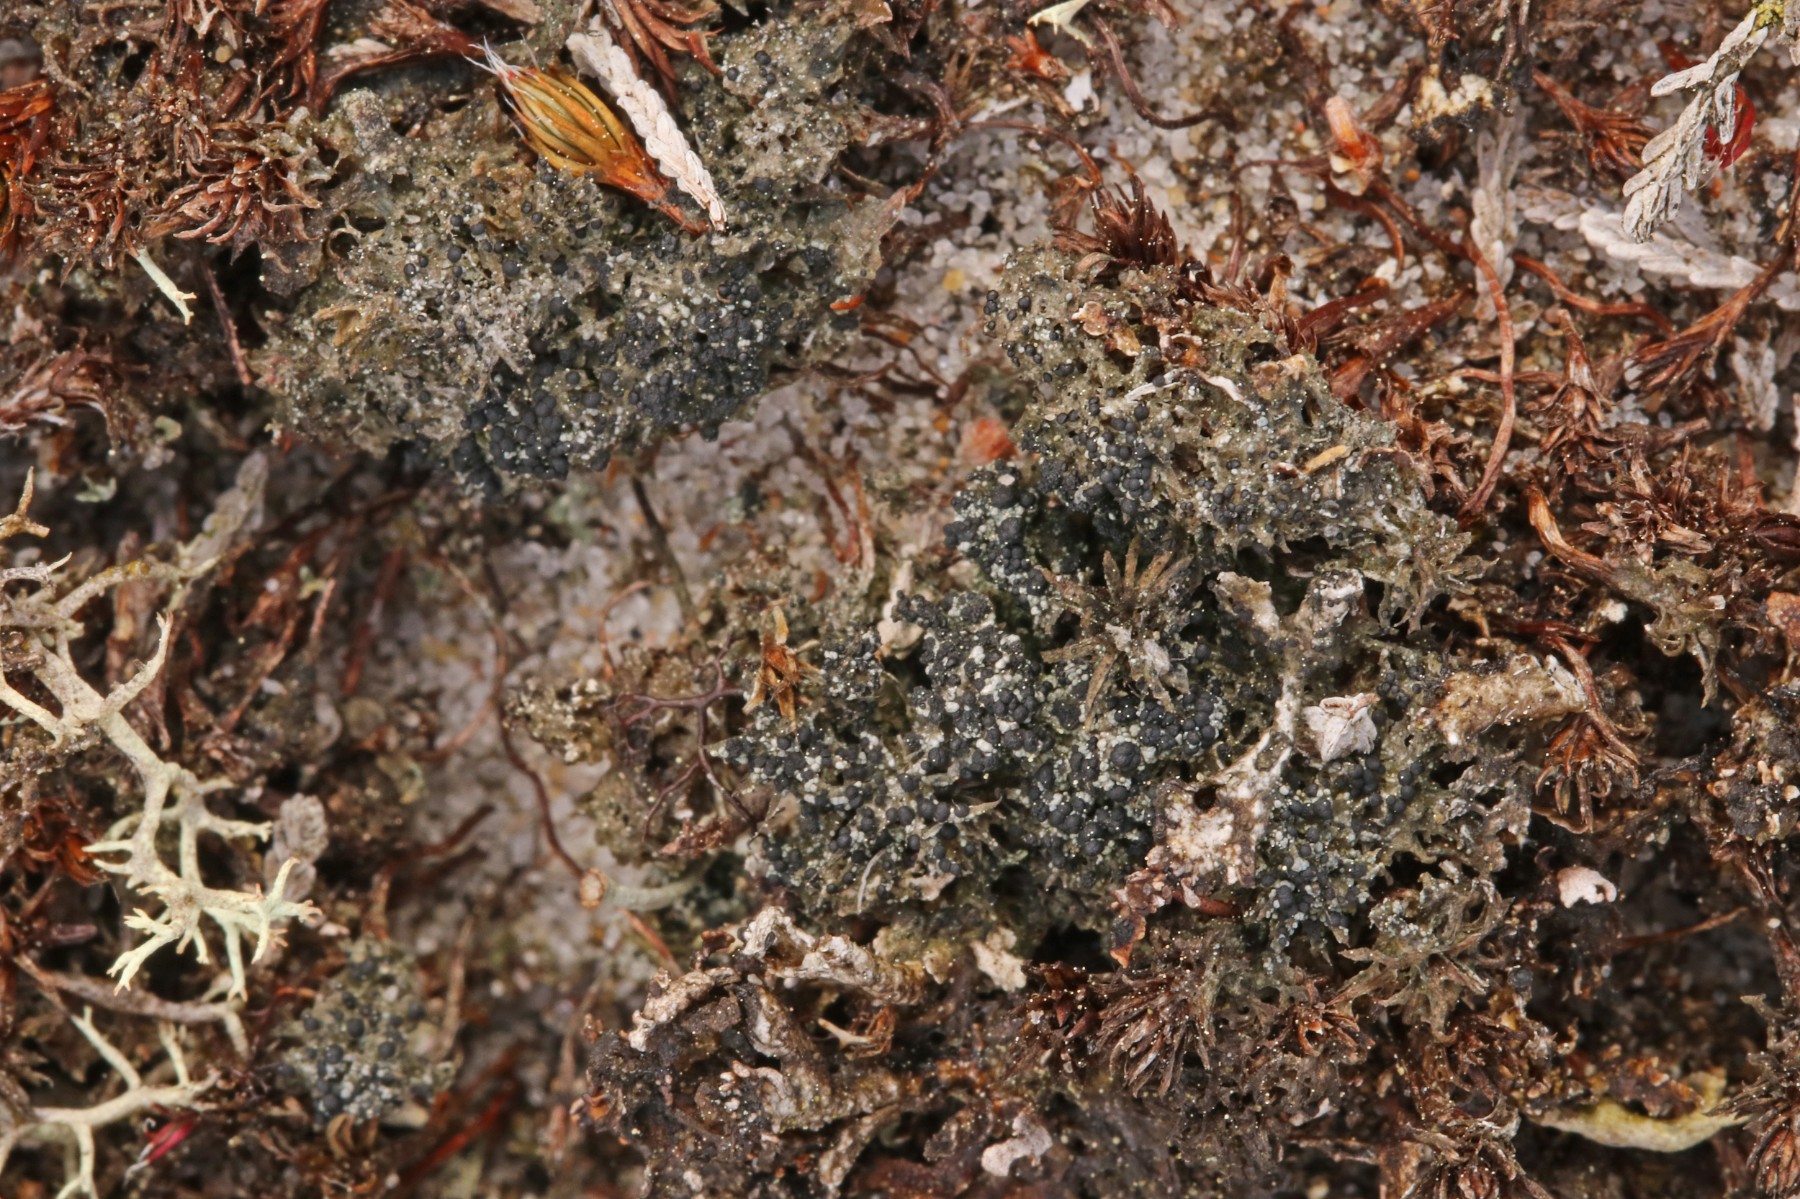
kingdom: Fungi
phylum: Ascomycota
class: Lecanoromycetes
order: Lecanorales
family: Byssolomataceae
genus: Micarea
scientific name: Micarea lignaria
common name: tørve-knaplav
